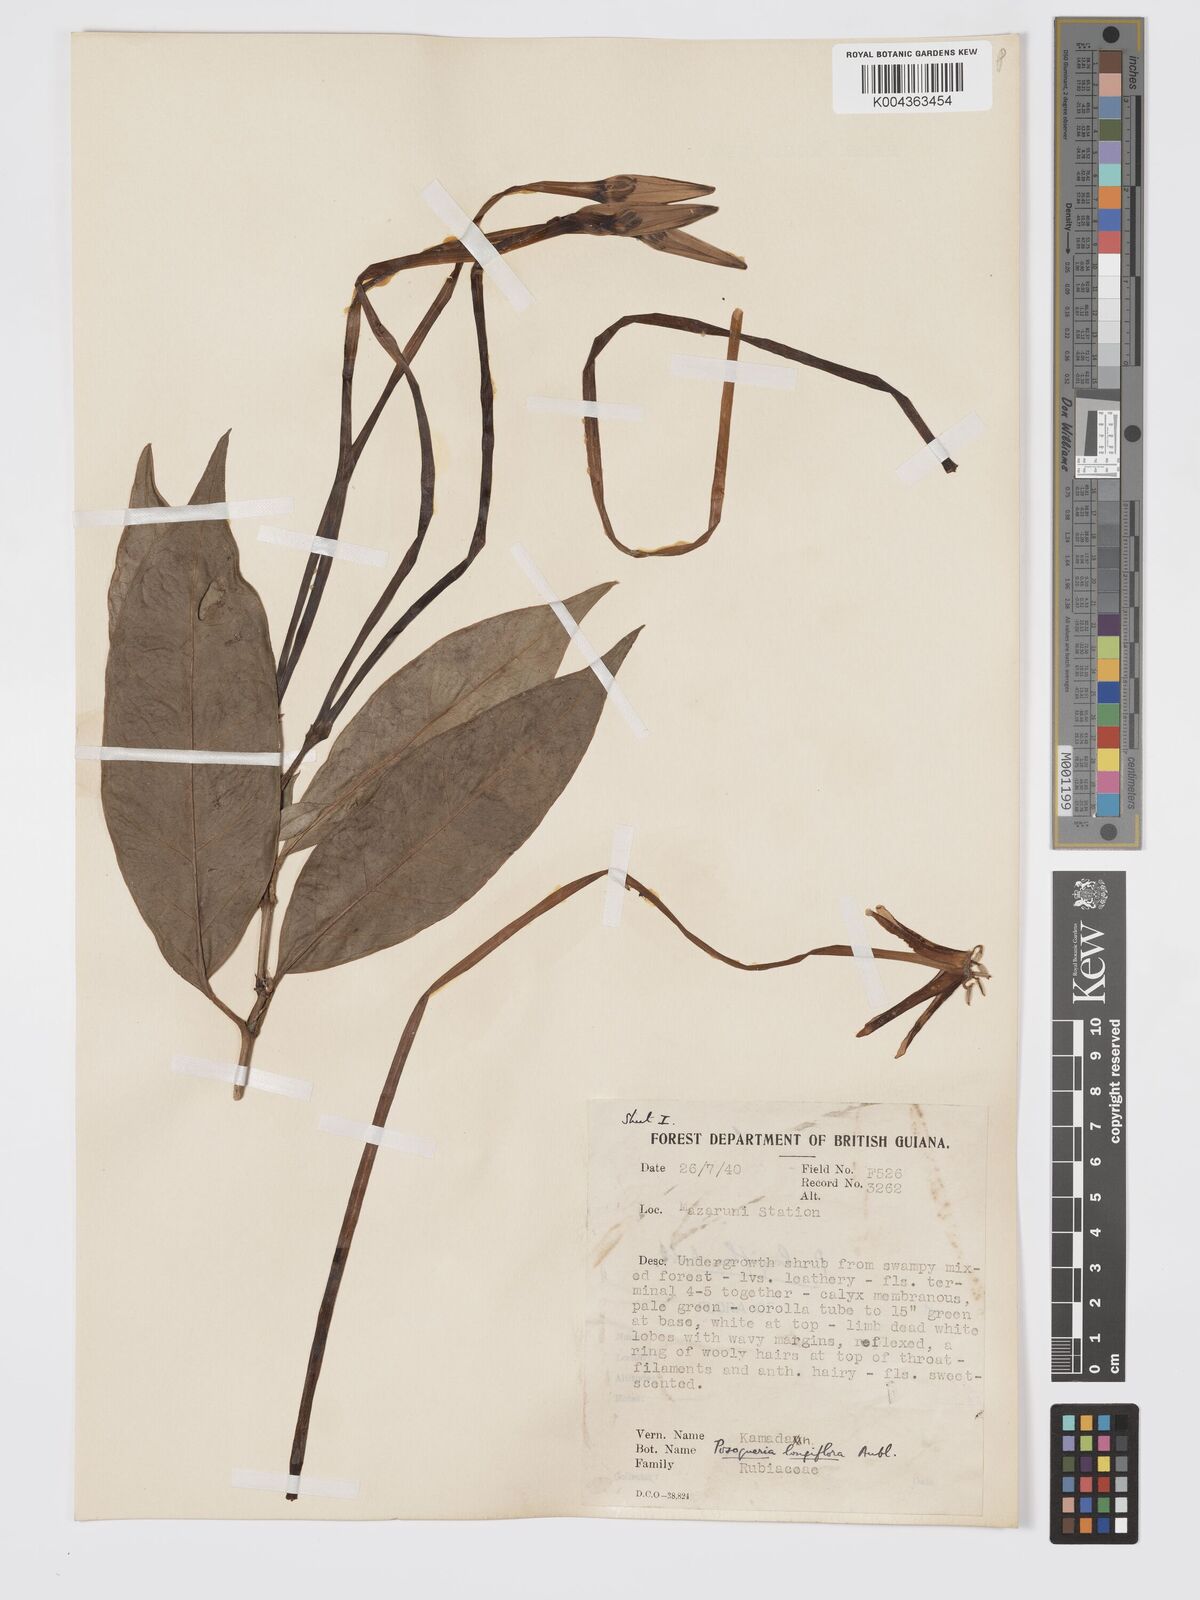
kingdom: Plantae
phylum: Tracheophyta
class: Magnoliopsida
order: Gentianales
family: Rubiaceae
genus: Posoqueria
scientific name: Posoqueria
